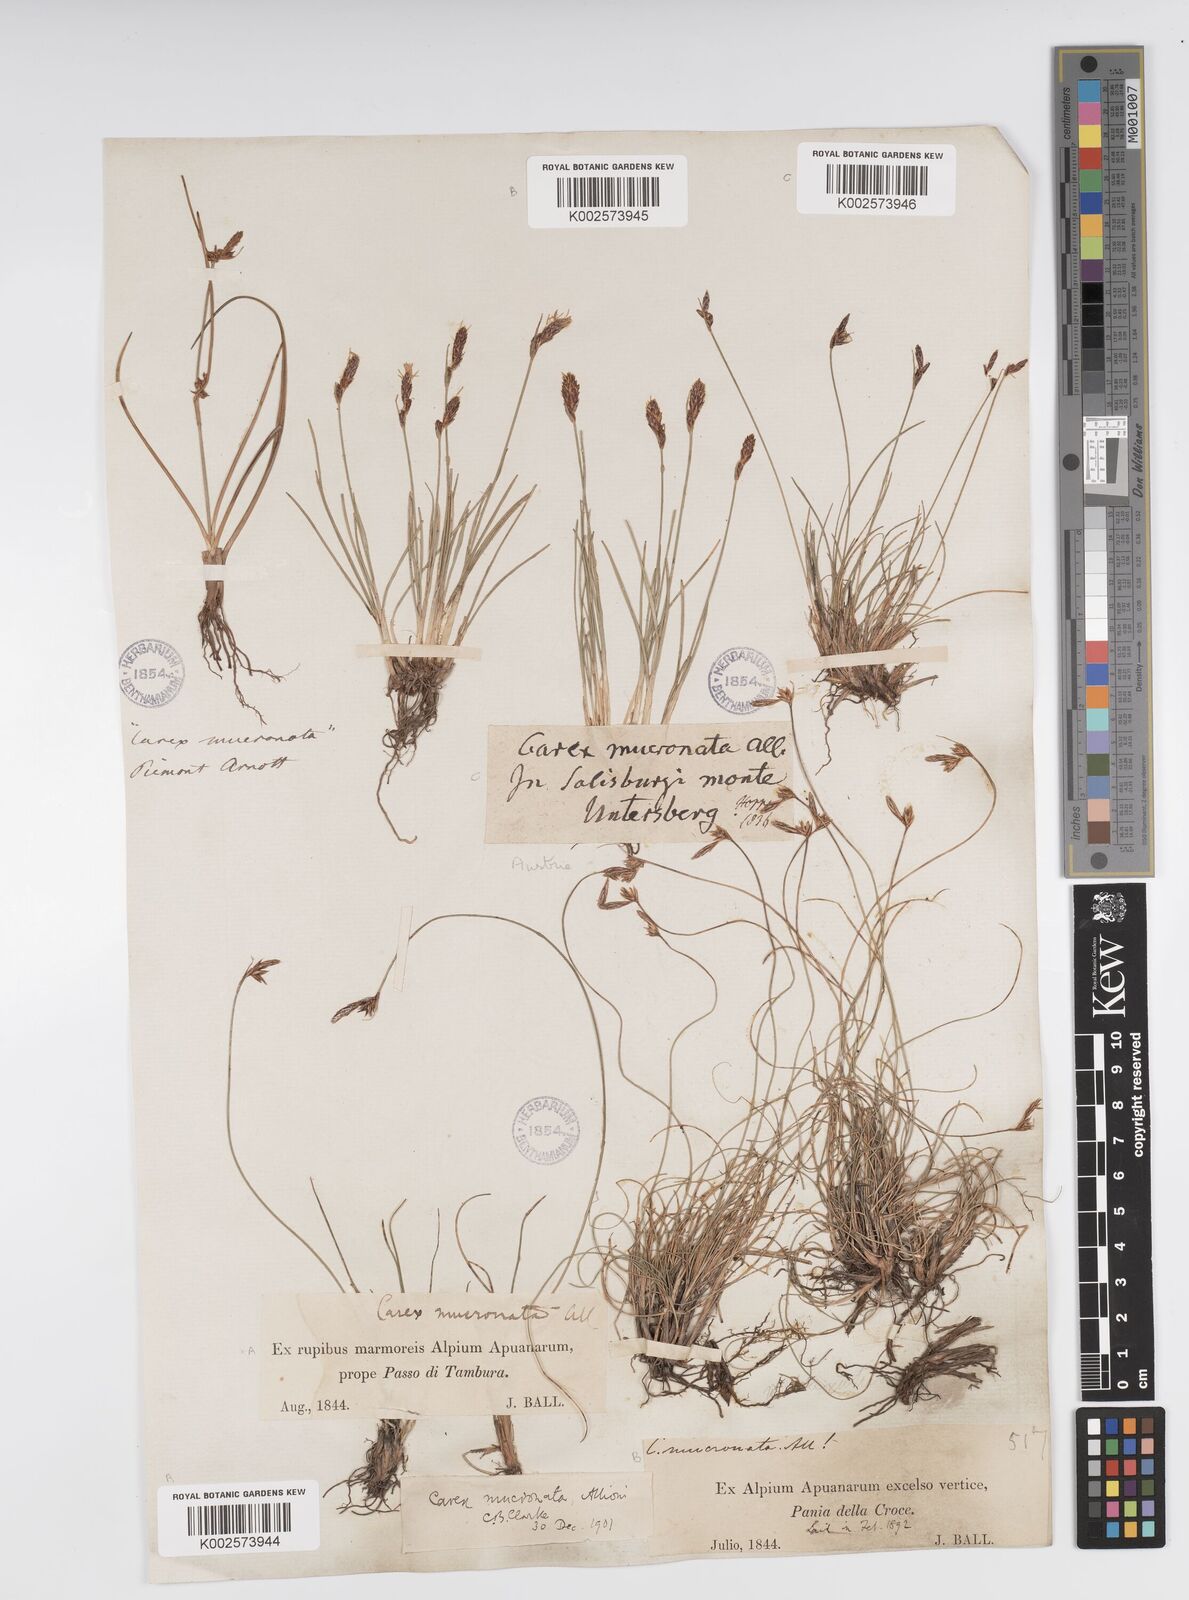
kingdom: Plantae
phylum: Tracheophyta
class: Liliopsida
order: Poales
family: Cyperaceae
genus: Carex
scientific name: Carex mucronata
